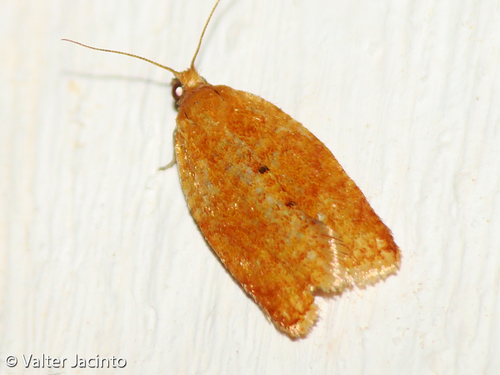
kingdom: Animalia
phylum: Arthropoda
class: Insecta
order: Lepidoptera
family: Tortricidae
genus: Clepsis
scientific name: Clepsis consimilana
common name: Privet tortrix
